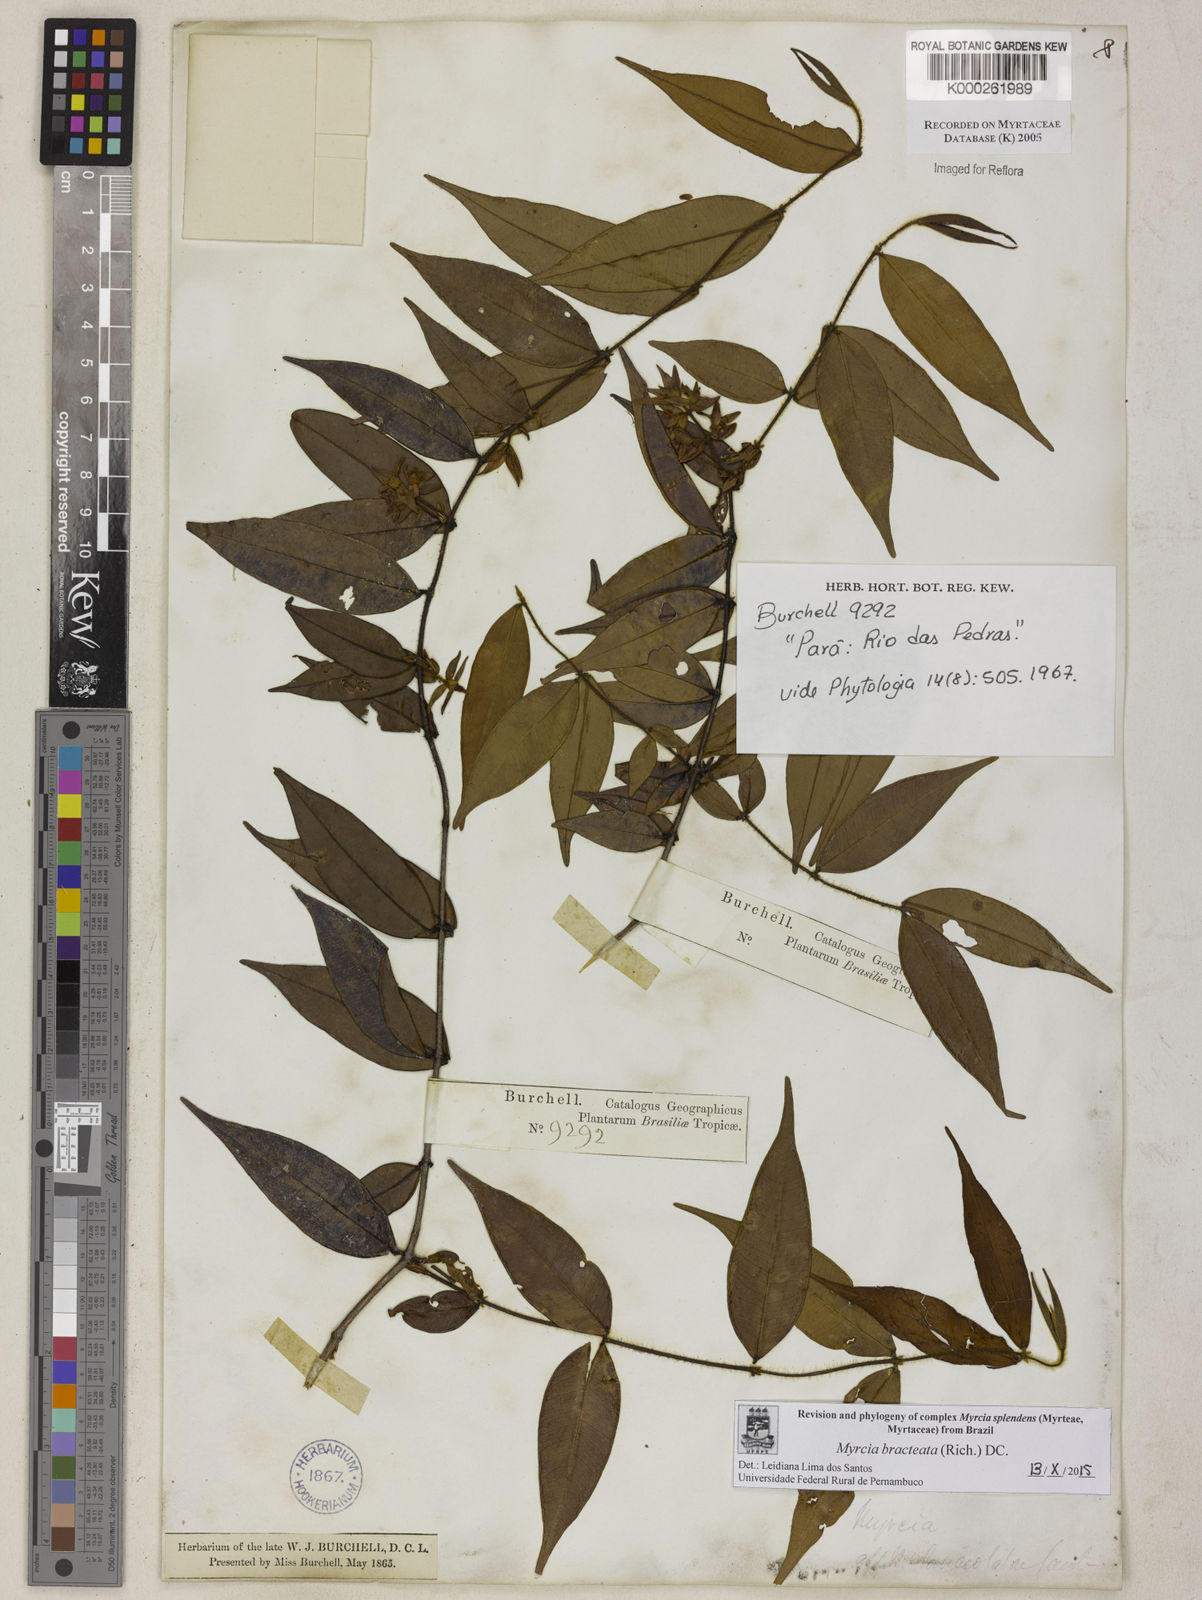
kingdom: Plantae
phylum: Tracheophyta
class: Magnoliopsida
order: Myrtales
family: Myrtaceae
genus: Myrcia
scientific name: Myrcia bracteata
